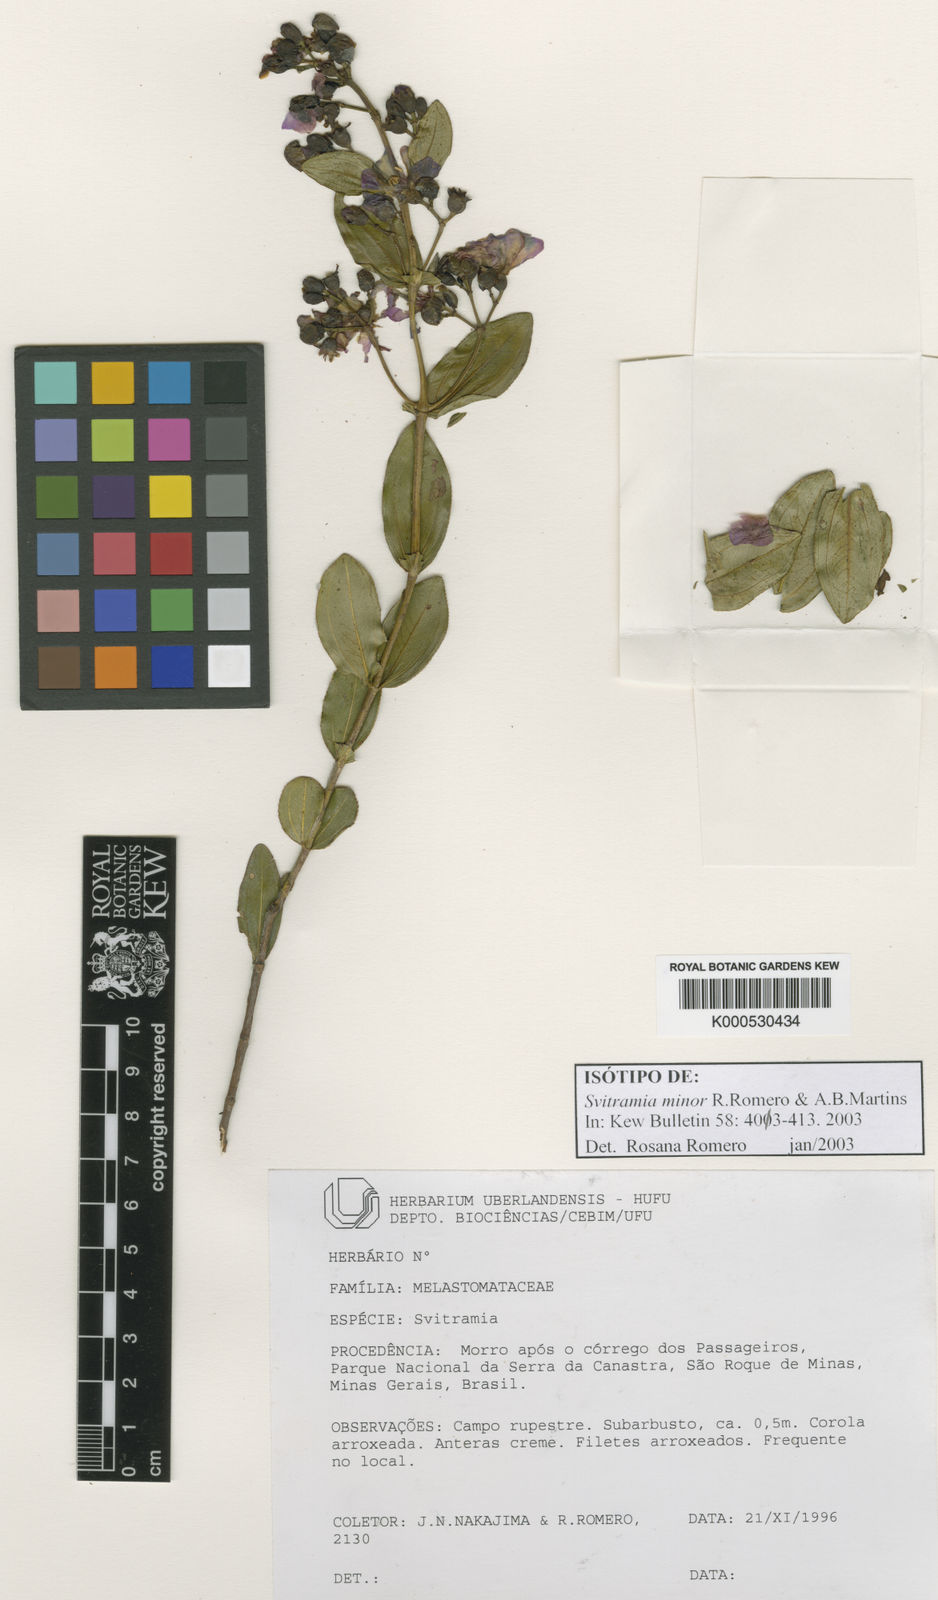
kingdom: Plantae
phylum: Tracheophyta
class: Magnoliopsida
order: Myrtales
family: Melastomataceae
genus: Pleroma
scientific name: Pleroma minus
